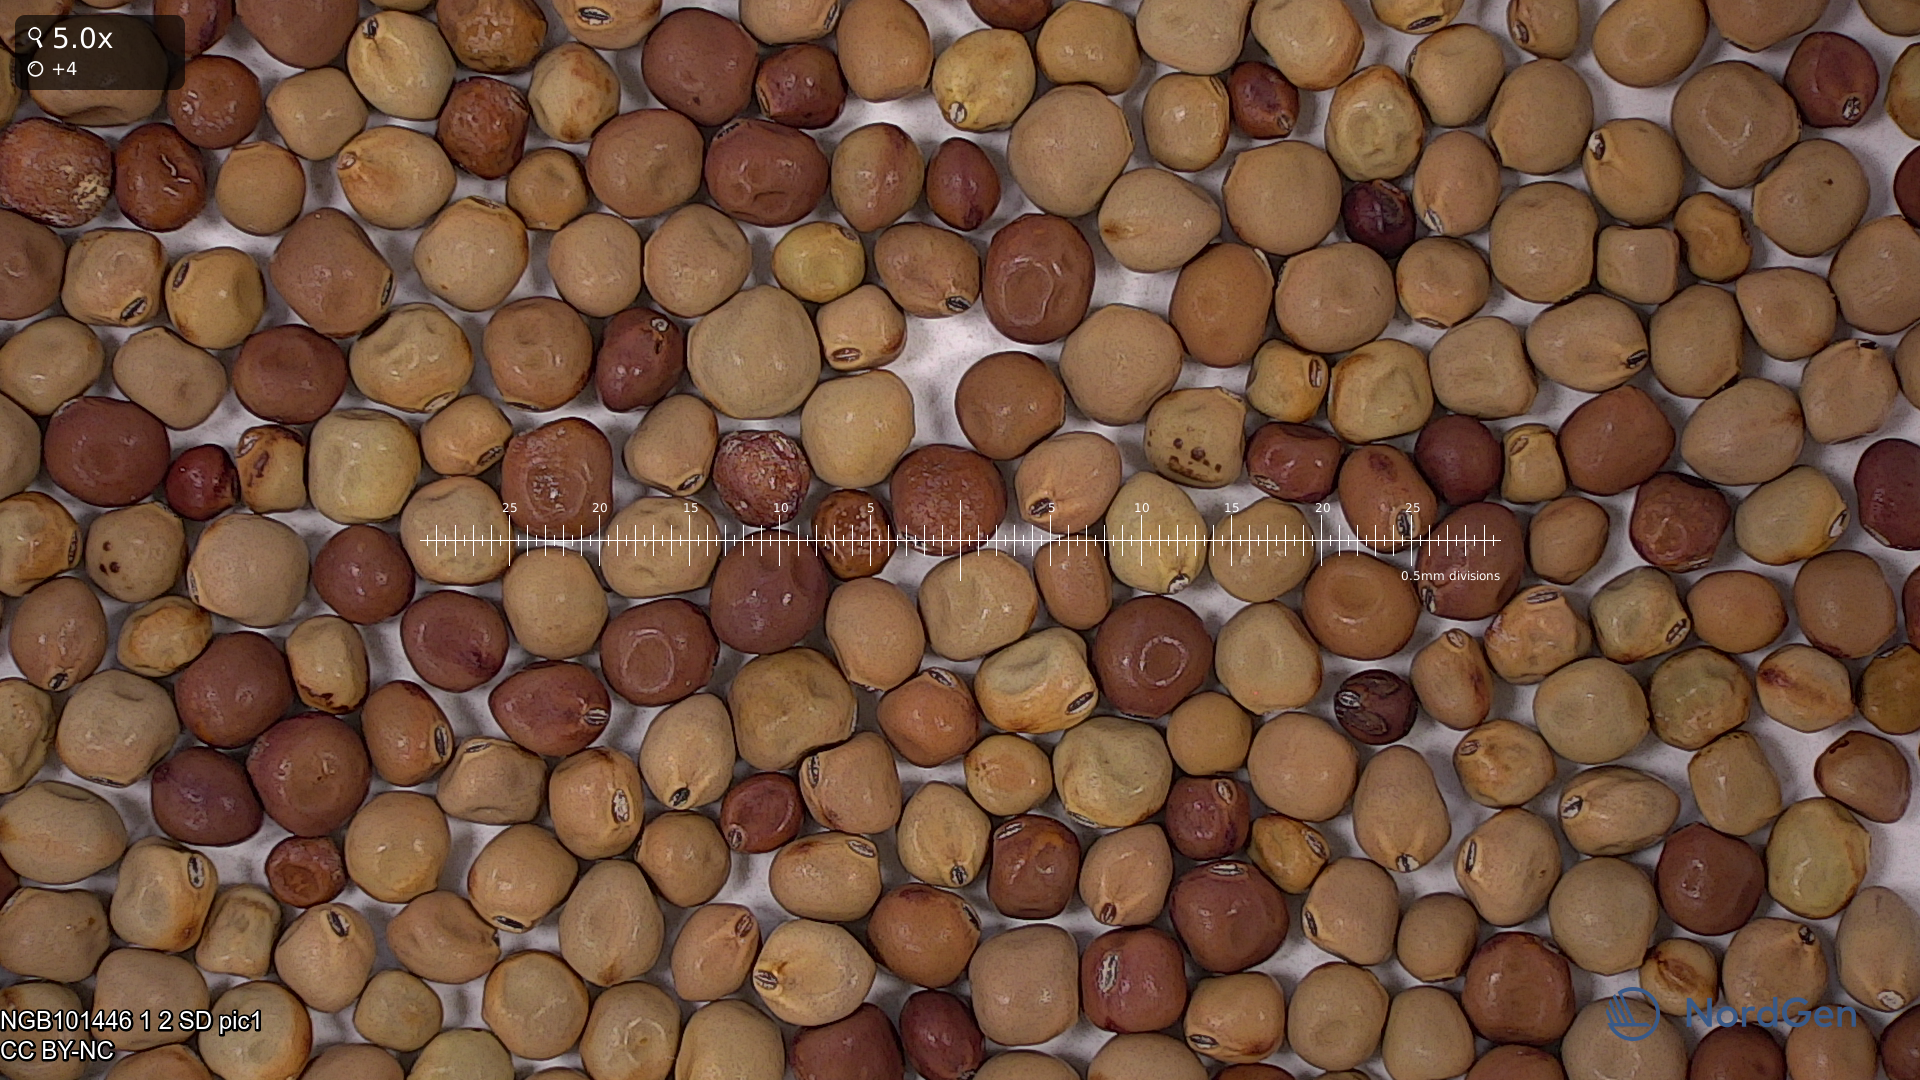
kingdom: Plantae
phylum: Tracheophyta
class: Magnoliopsida
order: Fabales
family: Fabaceae
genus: Lathyrus
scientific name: Lathyrus oleraceus
